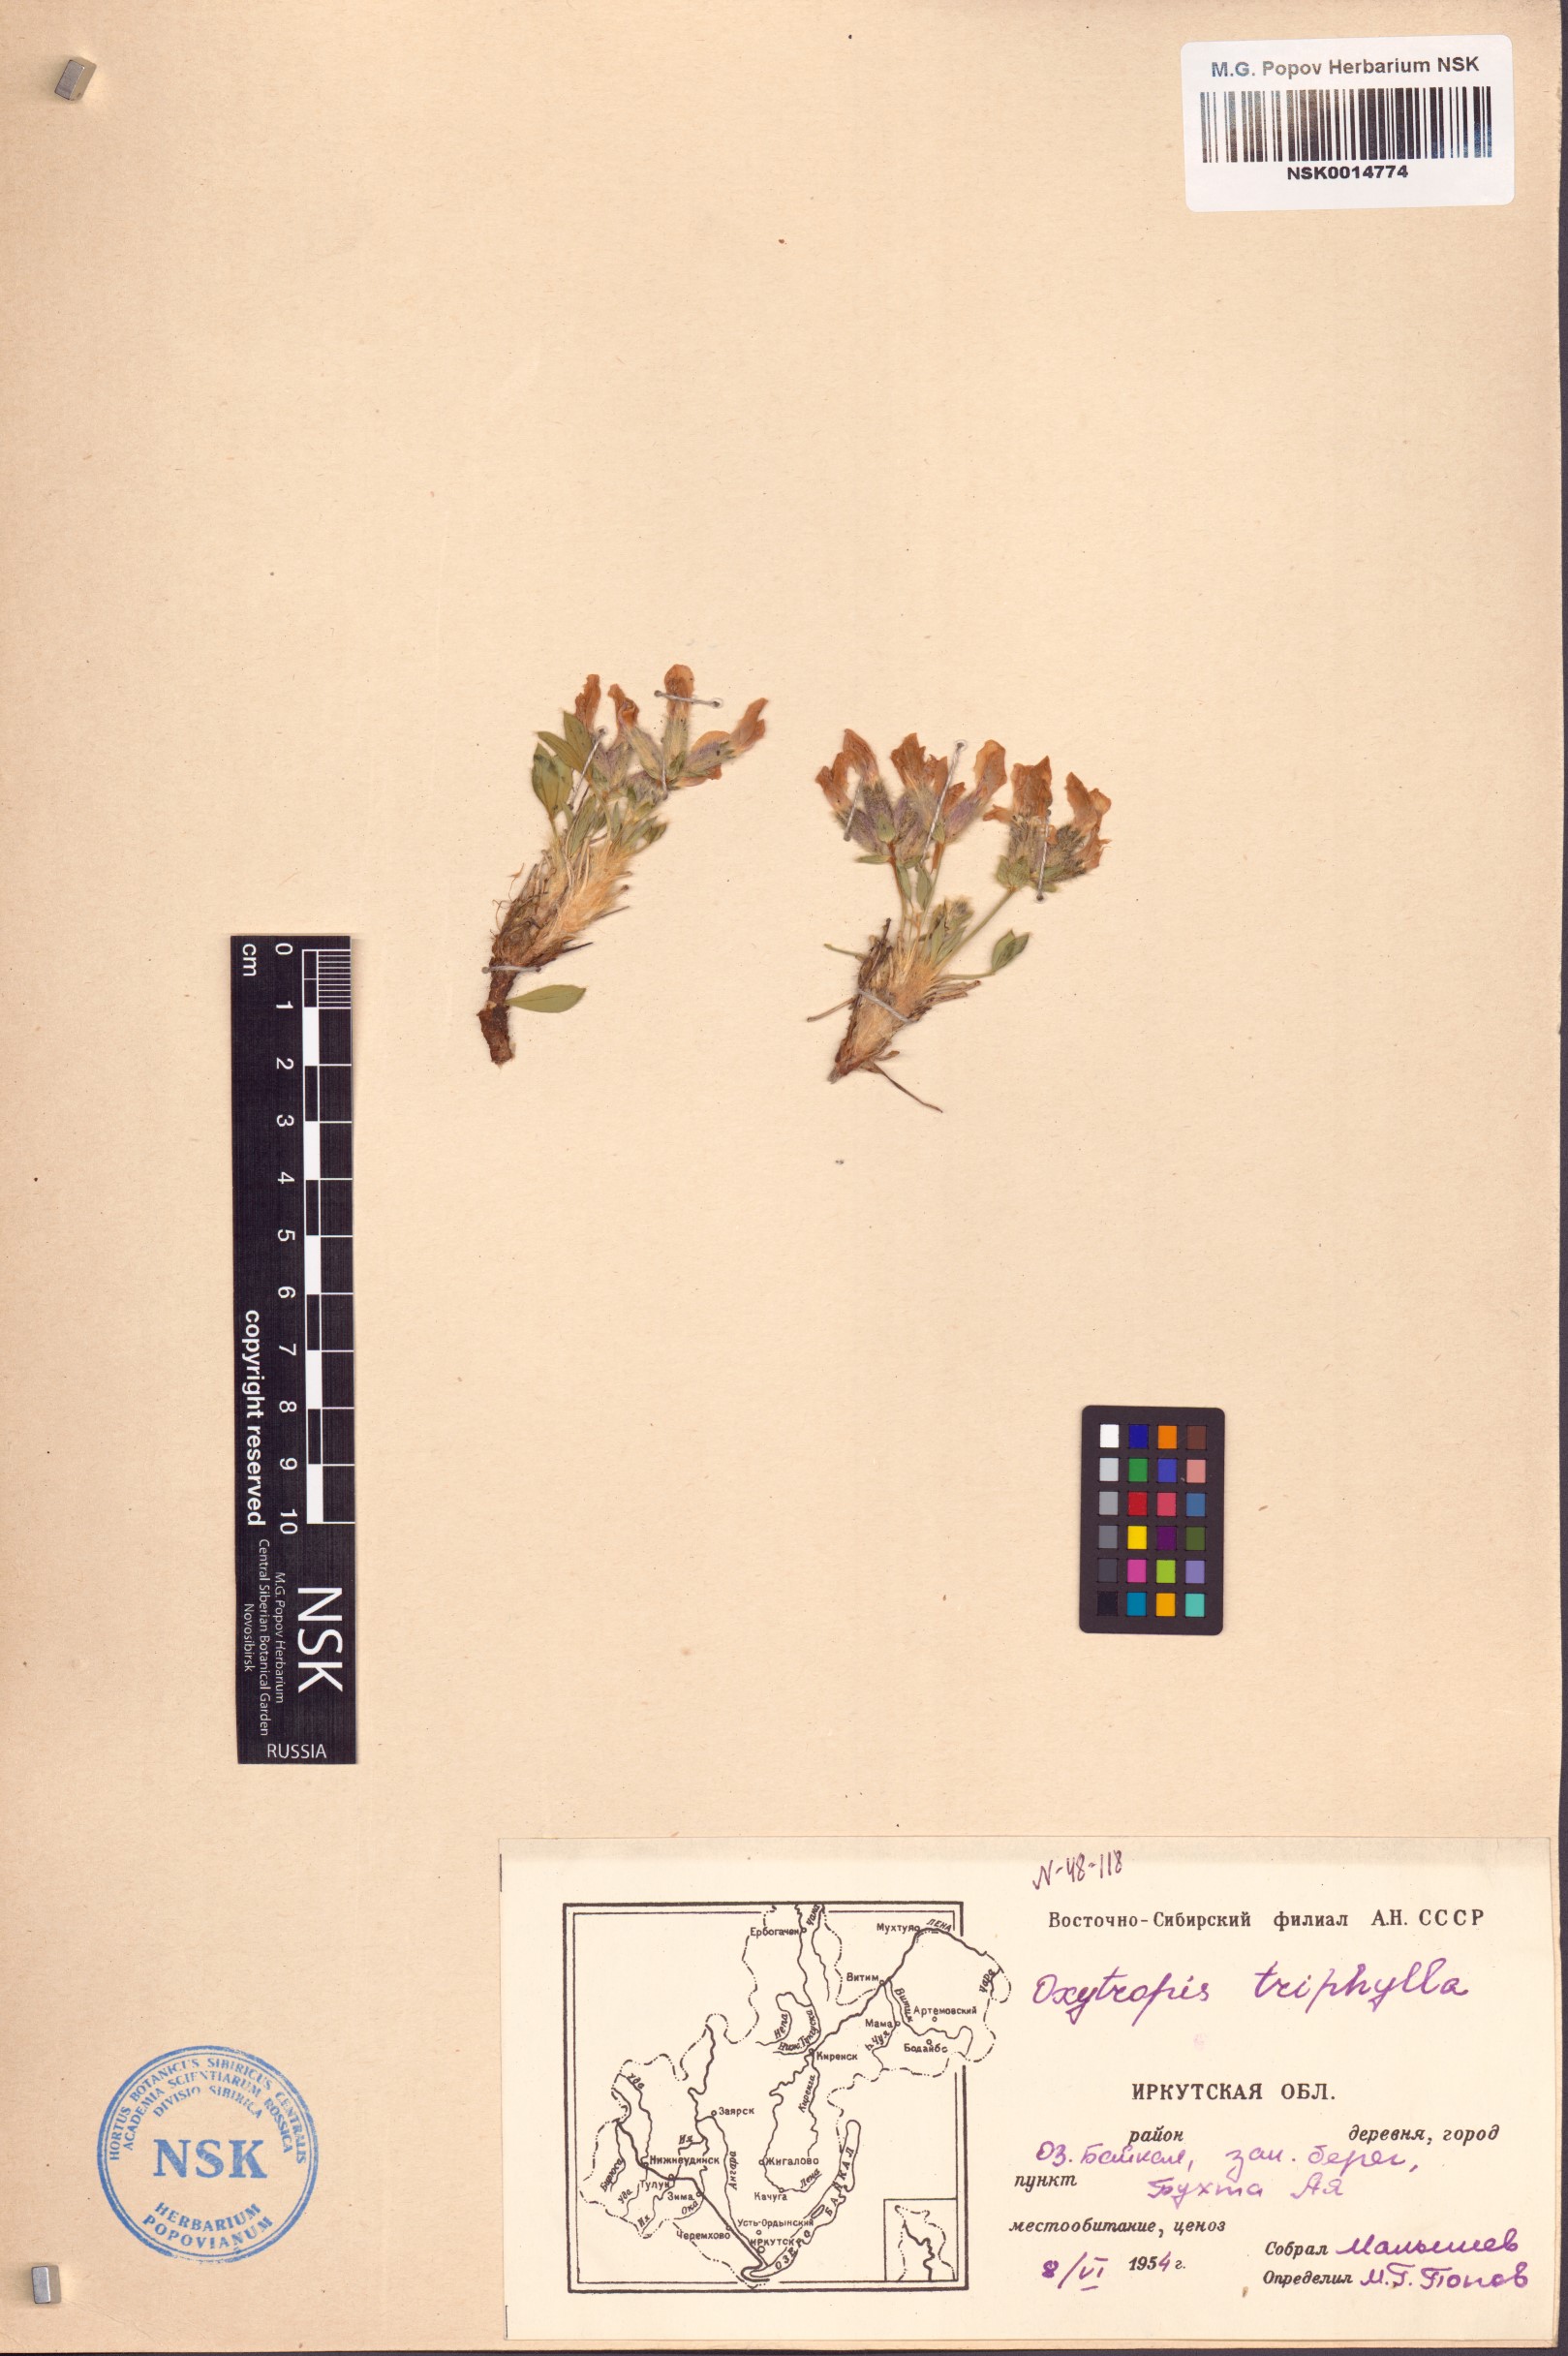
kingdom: Plantae
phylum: Tracheophyta
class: Magnoliopsida
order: Fabales
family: Fabaceae
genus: Oxytropis
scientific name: Oxytropis triphylla
